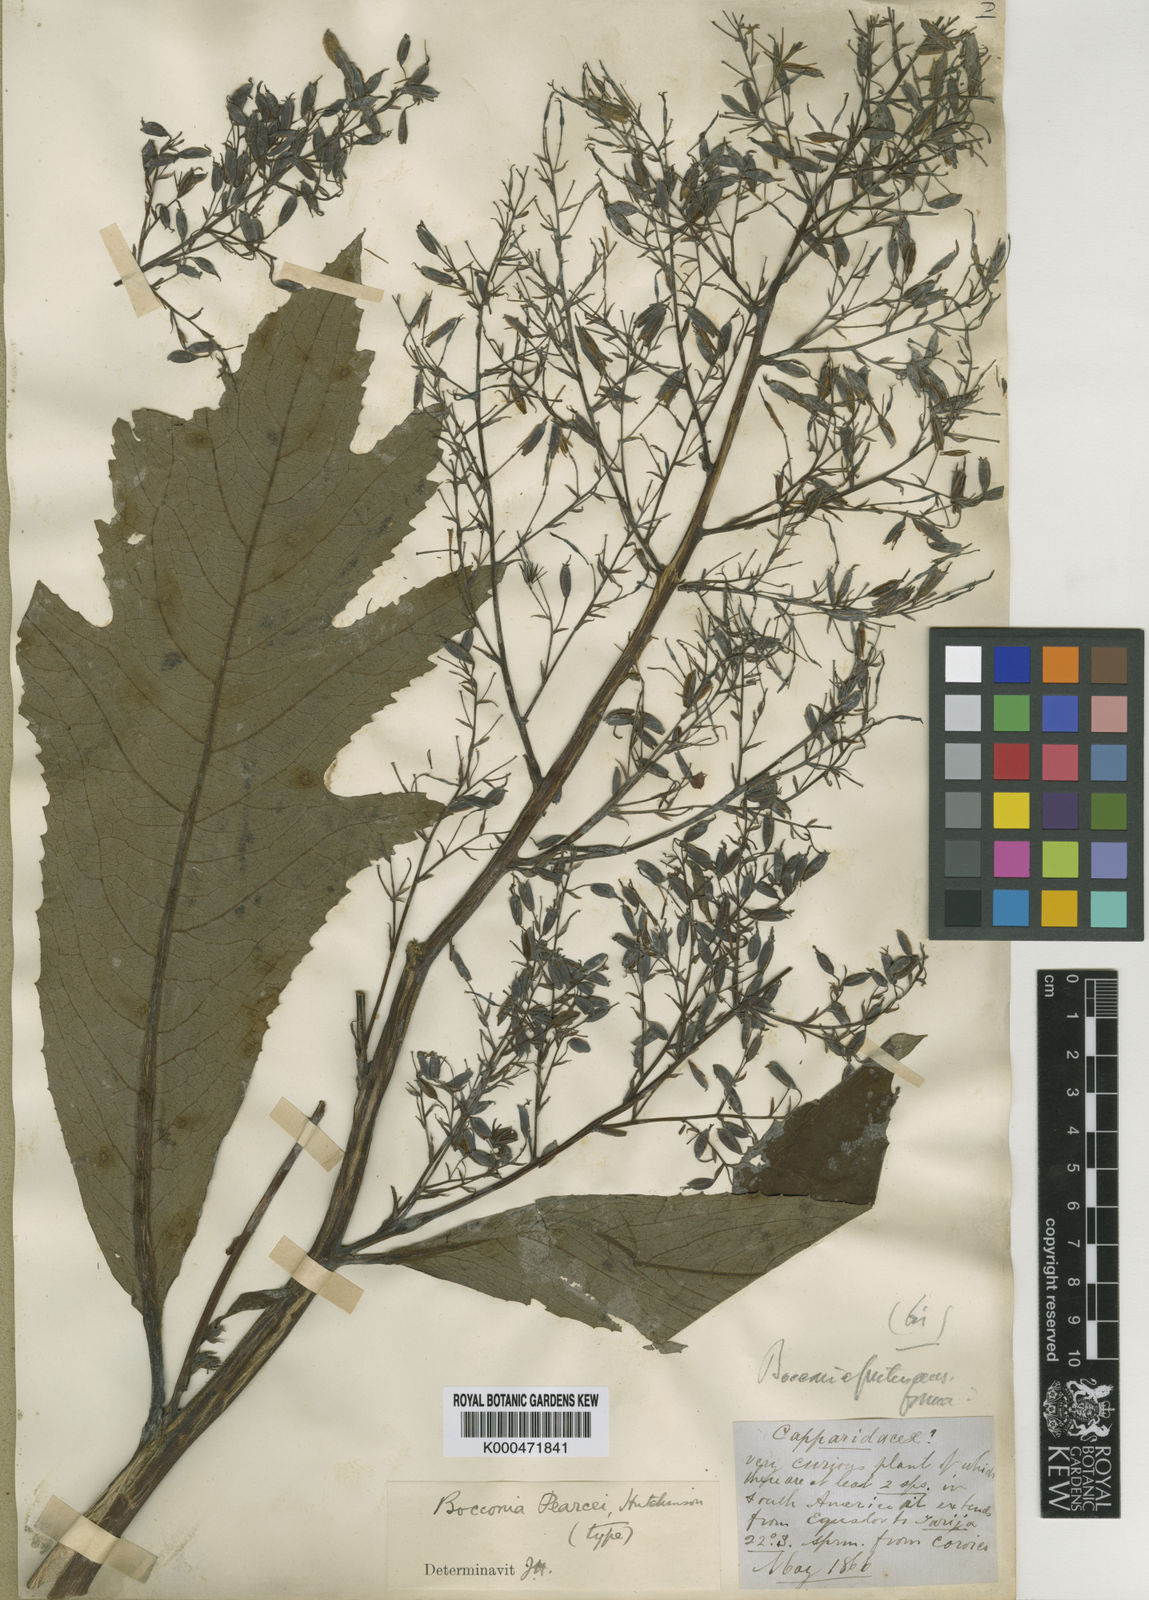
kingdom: Plantae
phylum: Tracheophyta
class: Magnoliopsida
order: Ranunculales
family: Papaveraceae
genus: Bocconia
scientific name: Bocconia integrifolia
